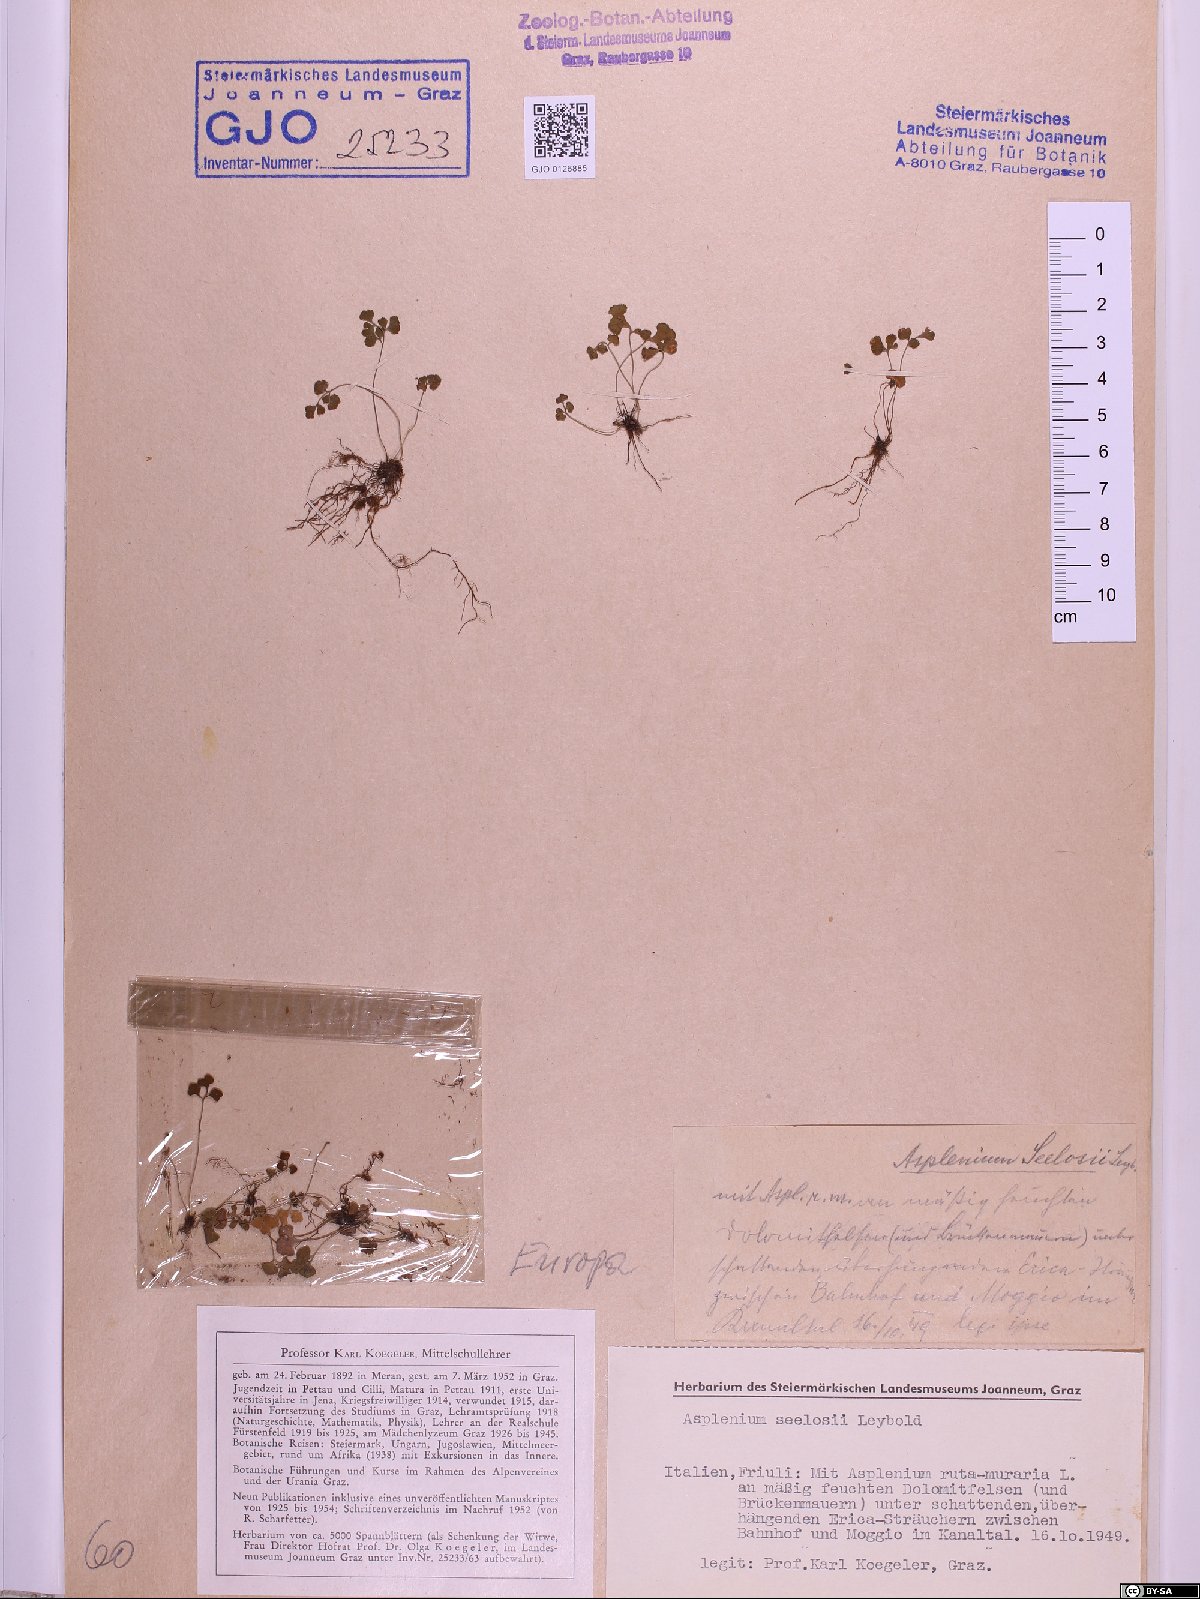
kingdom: Plantae
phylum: Tracheophyta
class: Polypodiopsida
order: Polypodiales
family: Aspleniaceae
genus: Asplenium
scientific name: Asplenium seelosii
